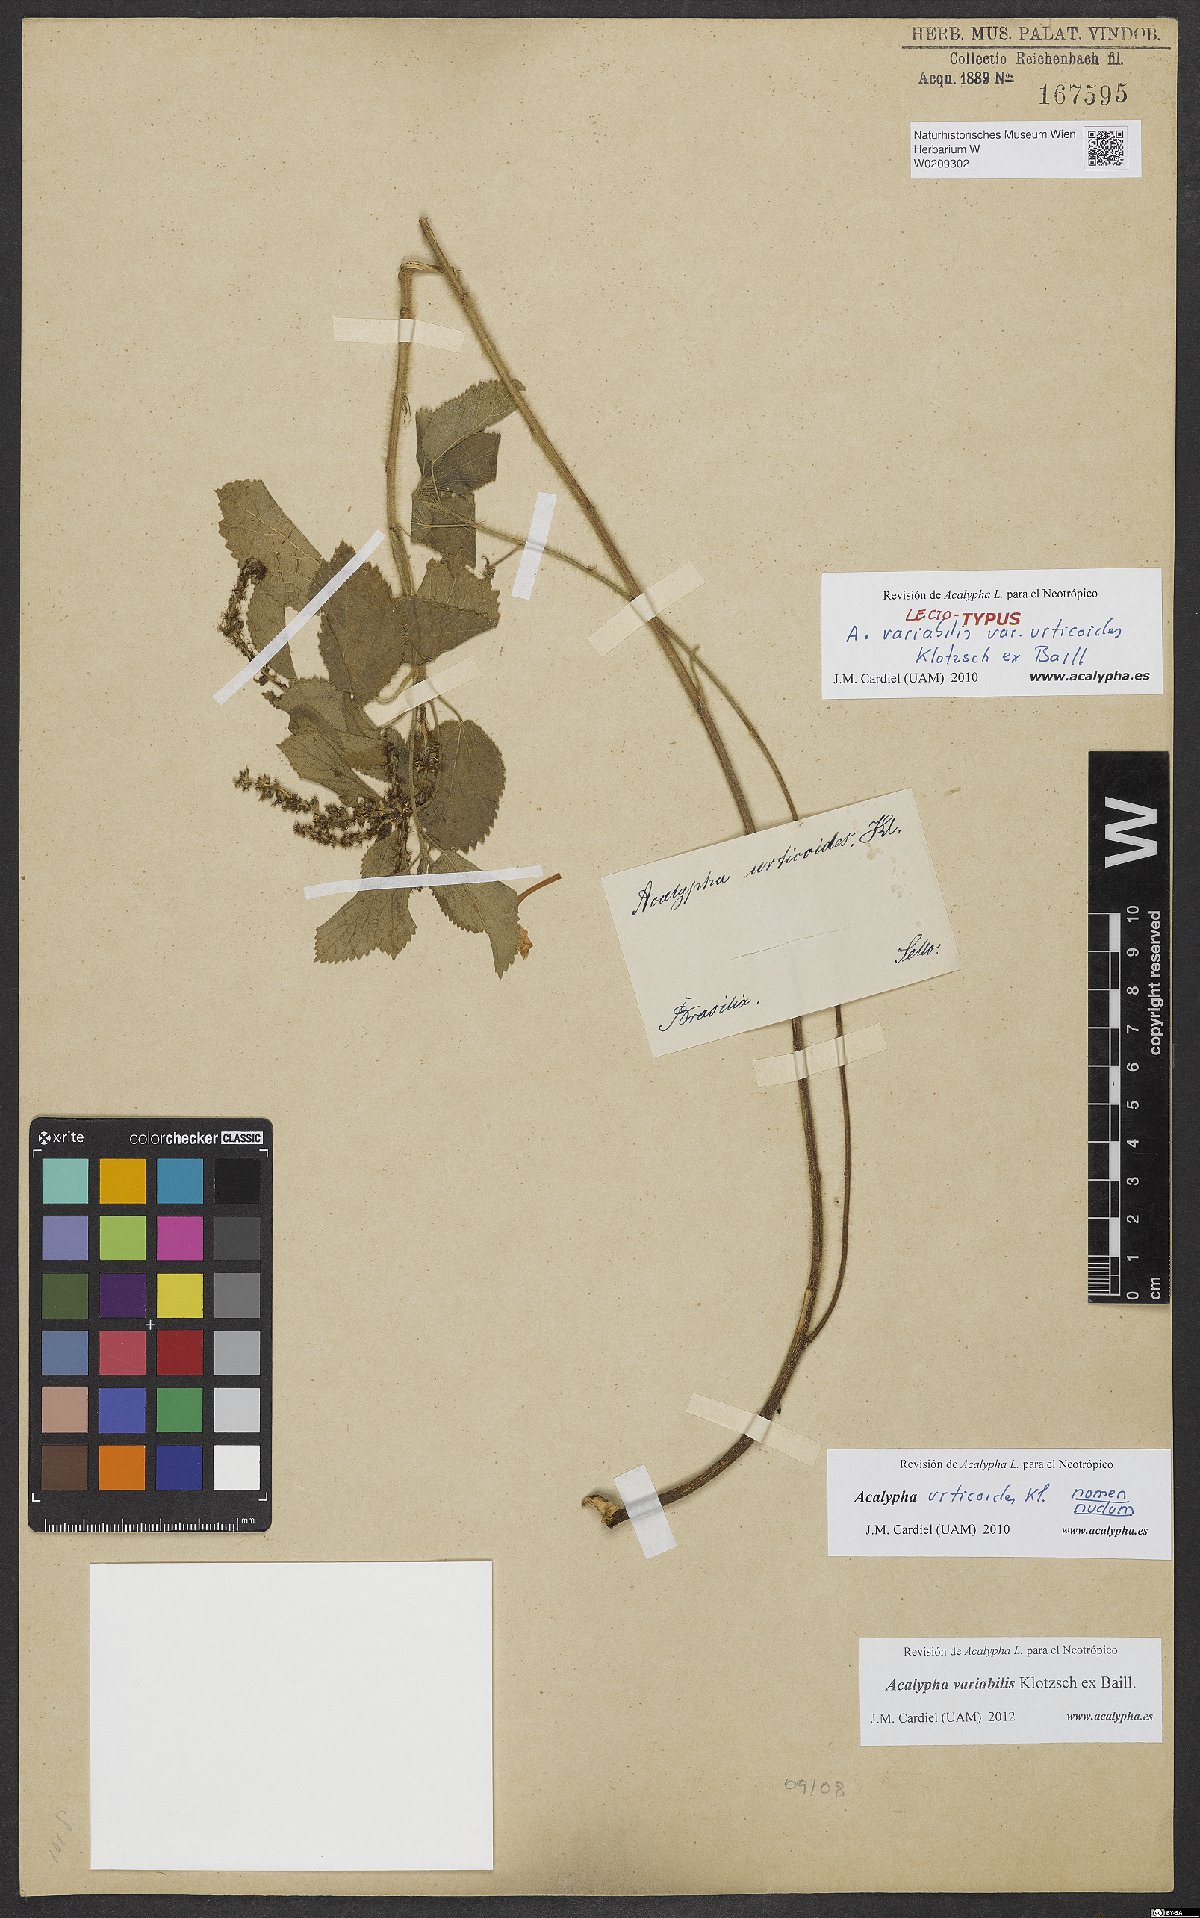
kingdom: Plantae
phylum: Tracheophyta
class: Magnoliopsida
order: Malpighiales
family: Euphorbiaceae
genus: Acalypha
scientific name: Acalypha variabilis
